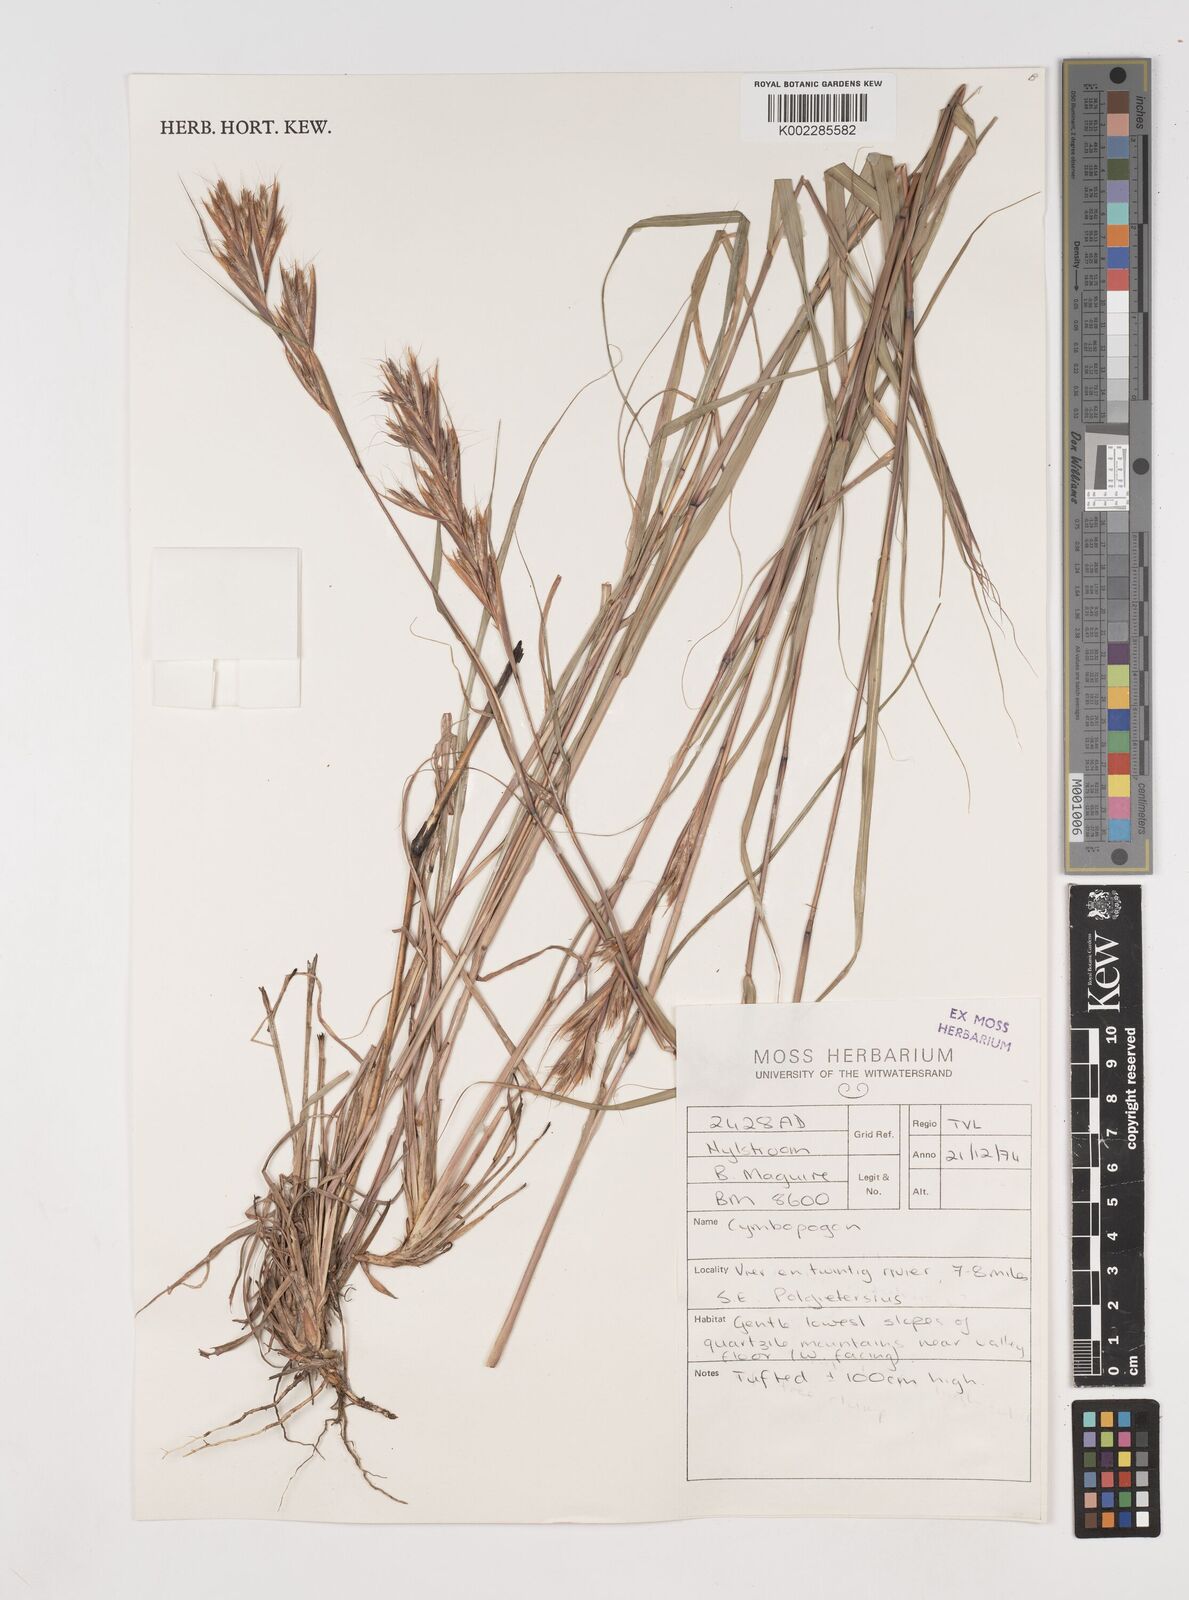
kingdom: Plantae
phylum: Tracheophyta
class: Liliopsida
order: Poales
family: Poaceae
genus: Cymbopogon
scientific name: Cymbopogon caesius
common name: Kachi grass
